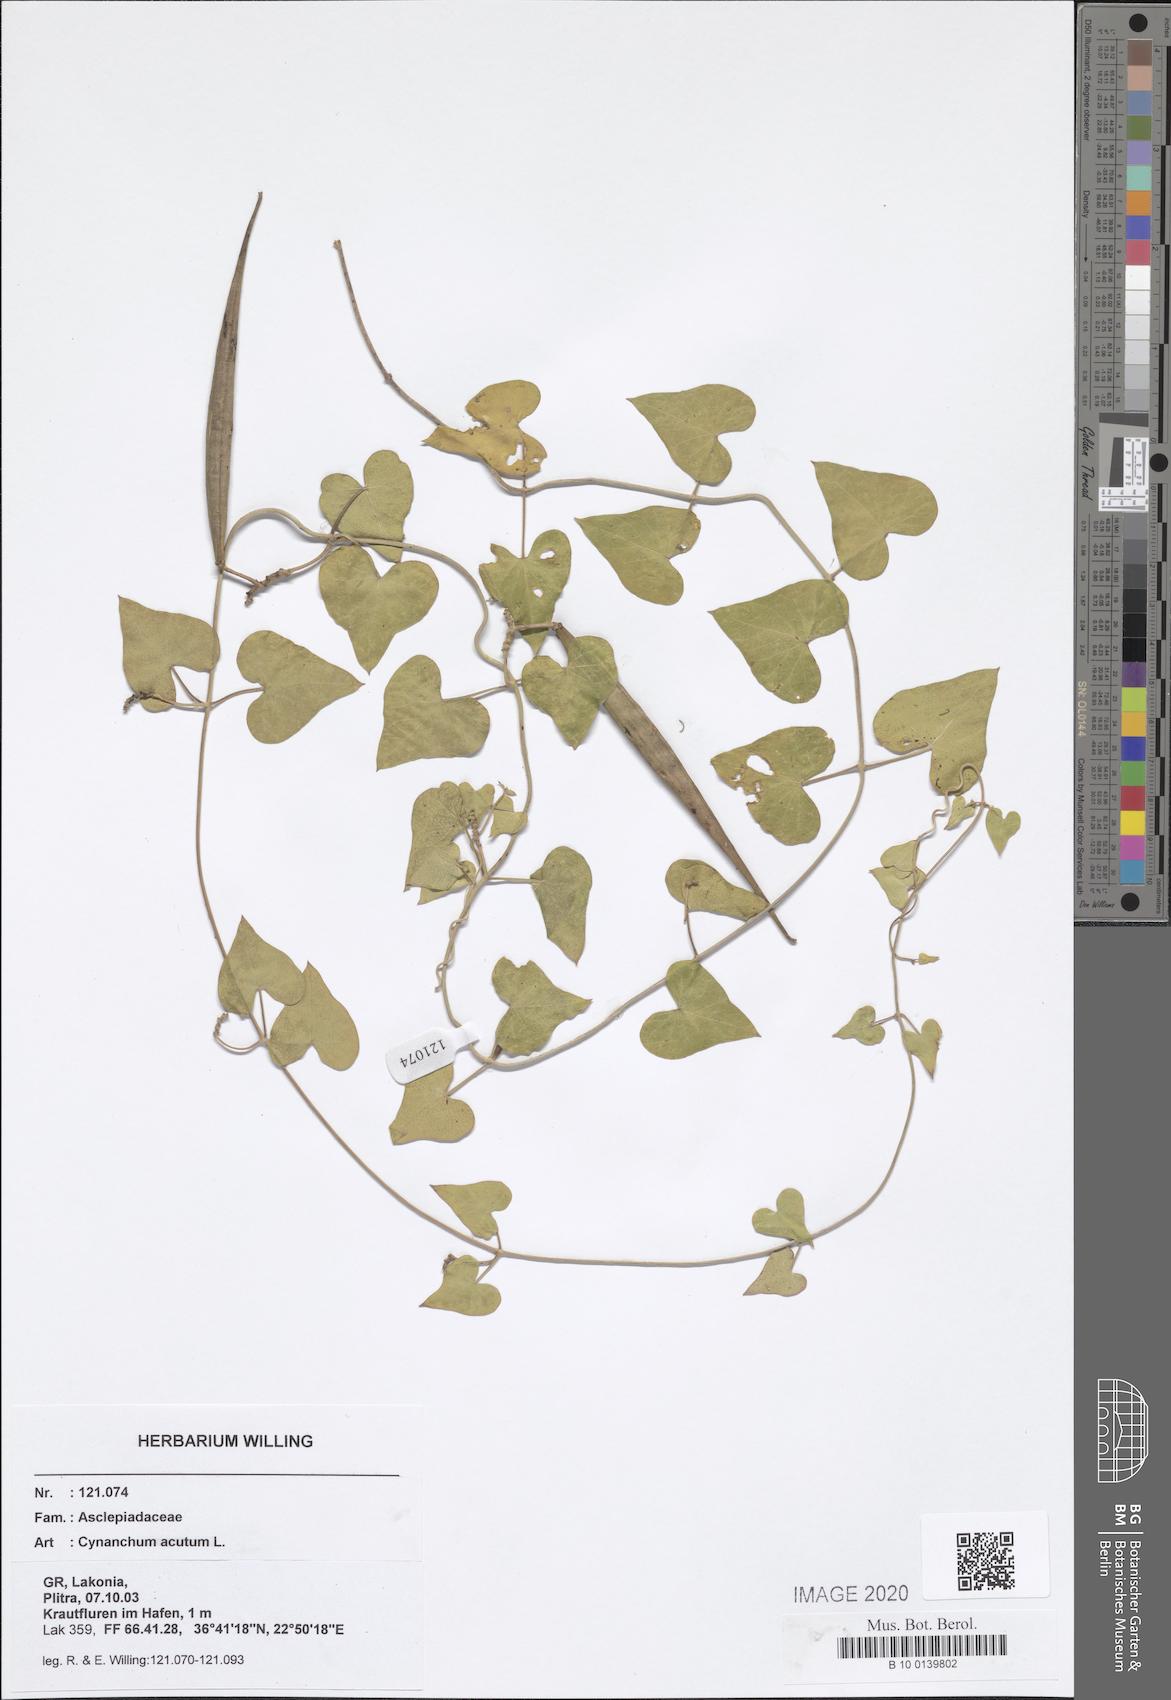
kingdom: Plantae
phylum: Tracheophyta
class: Magnoliopsida
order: Gentianales
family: Apocynaceae
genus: Cynanchum
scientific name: Cynanchum acutum
